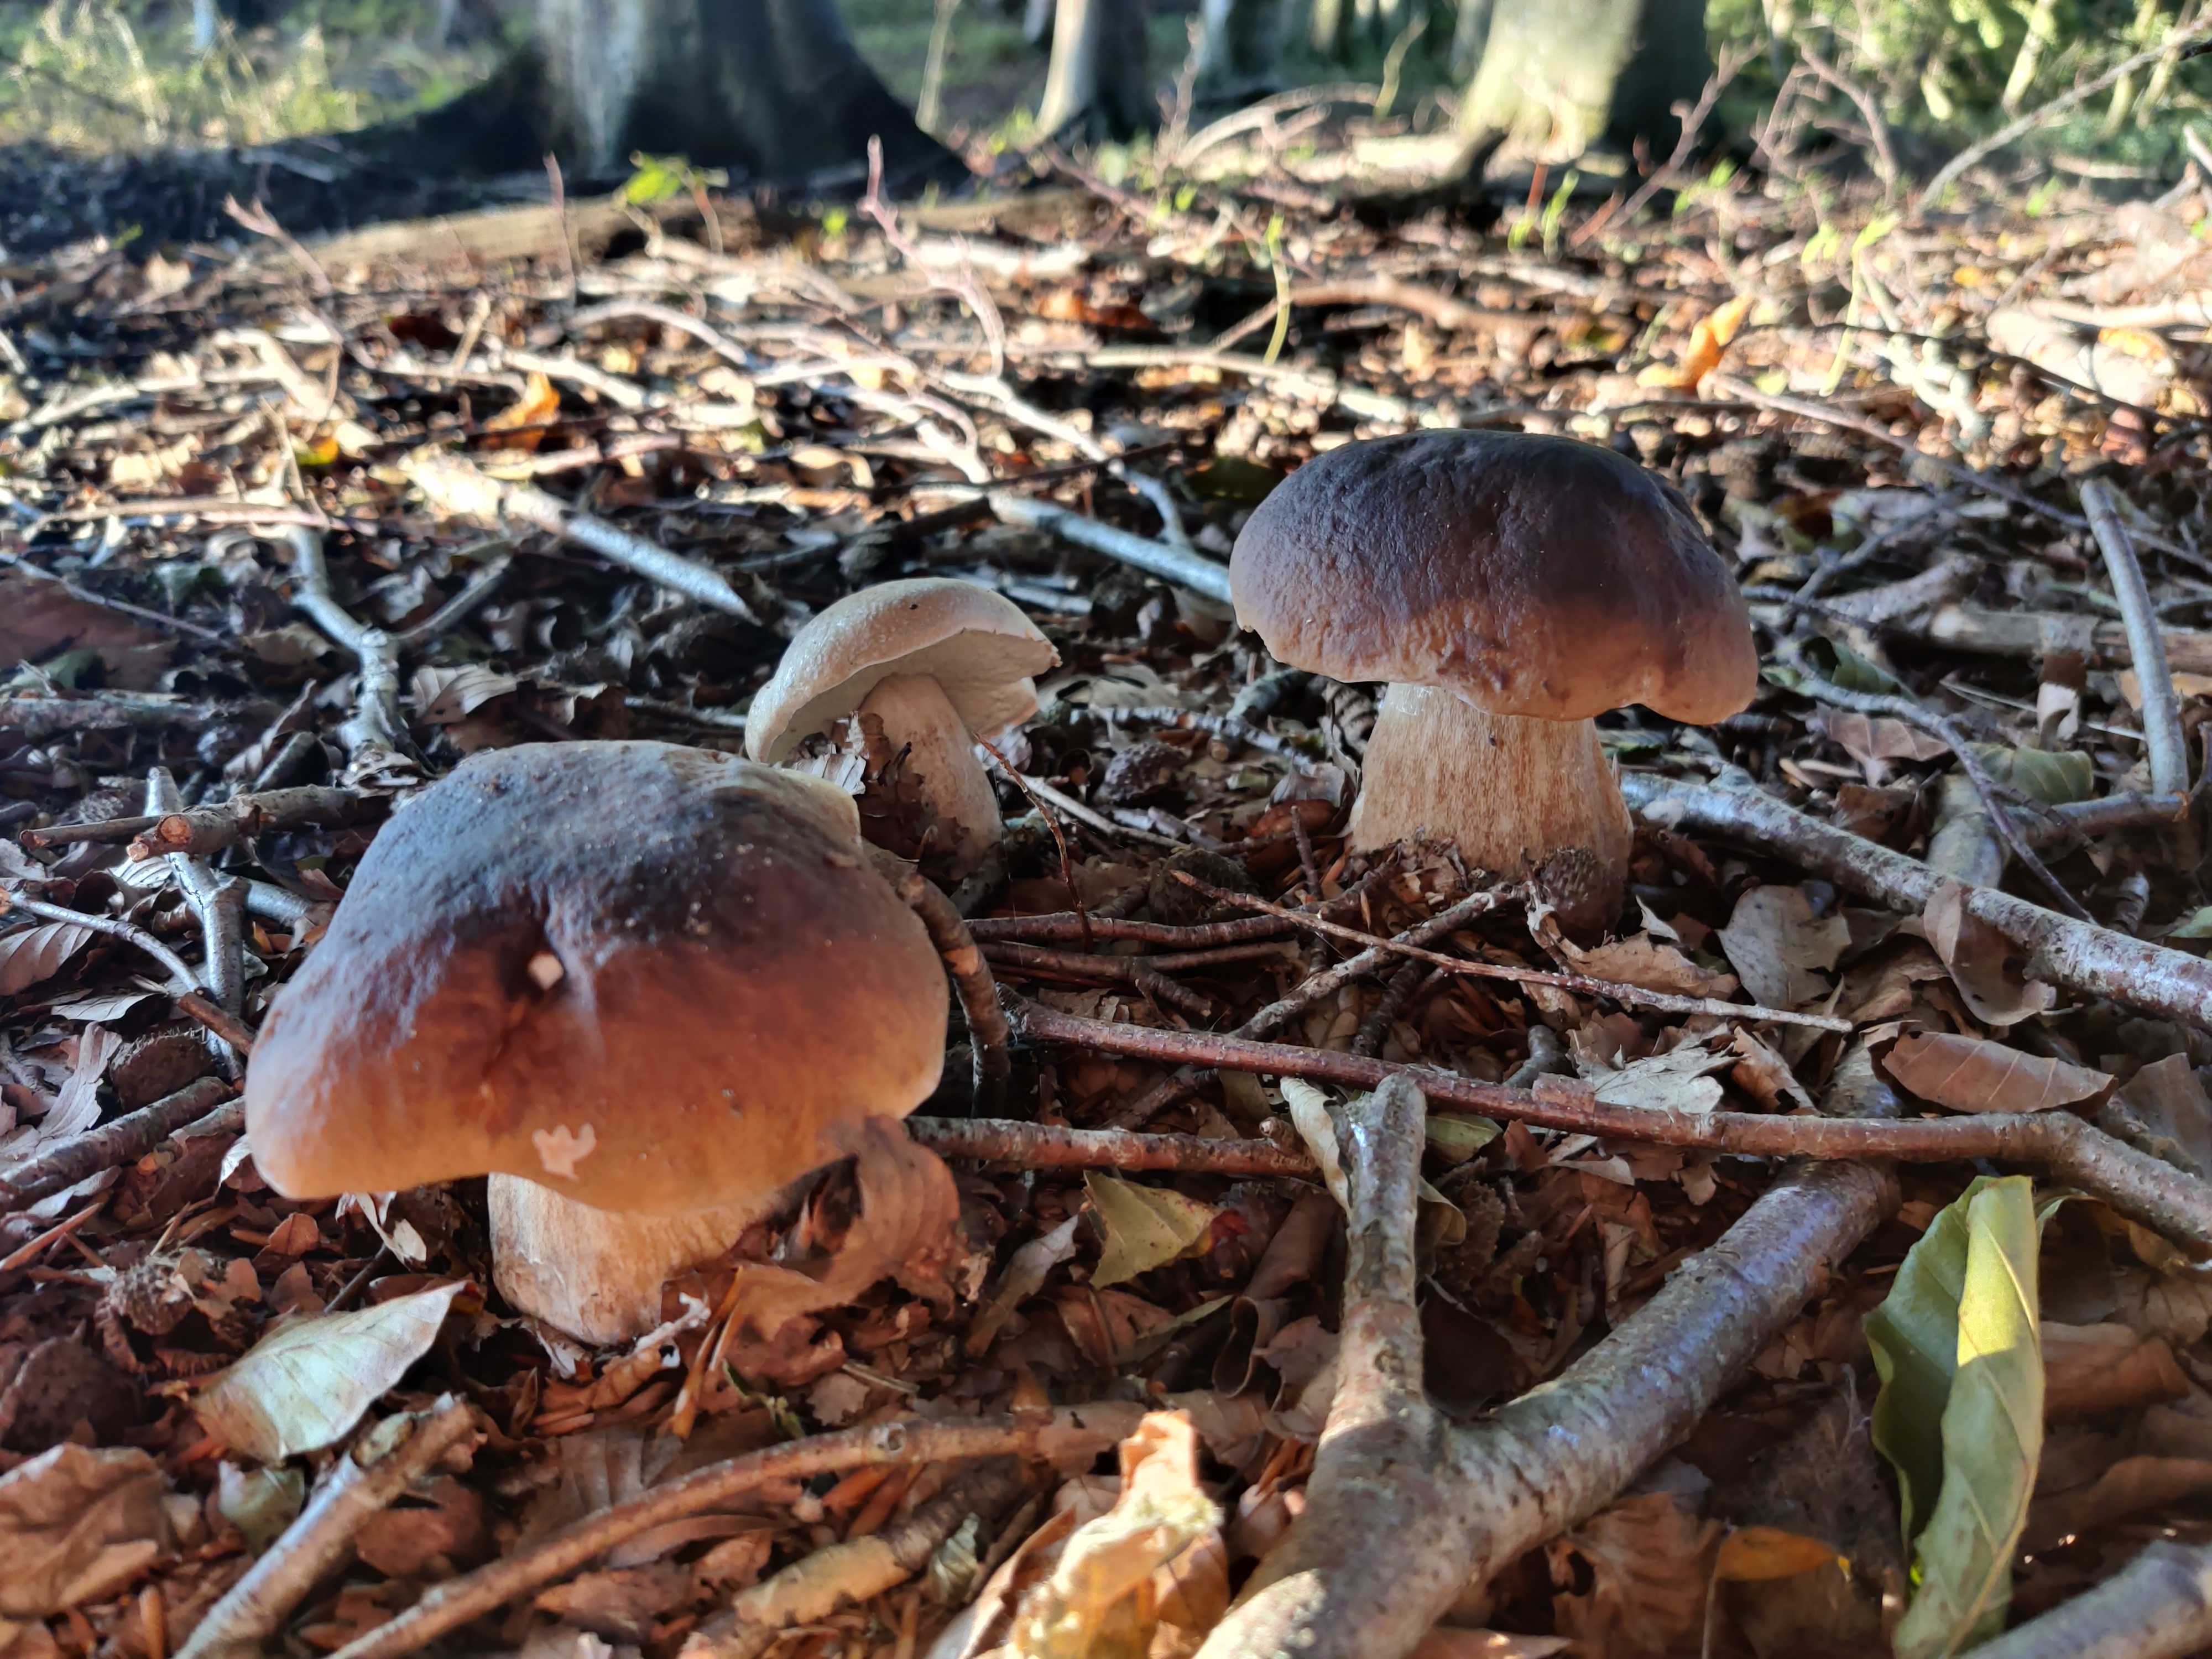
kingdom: Fungi
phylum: Basidiomycota
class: Agaricomycetes
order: Boletales
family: Boletaceae
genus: Boletus
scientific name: Boletus edulis
